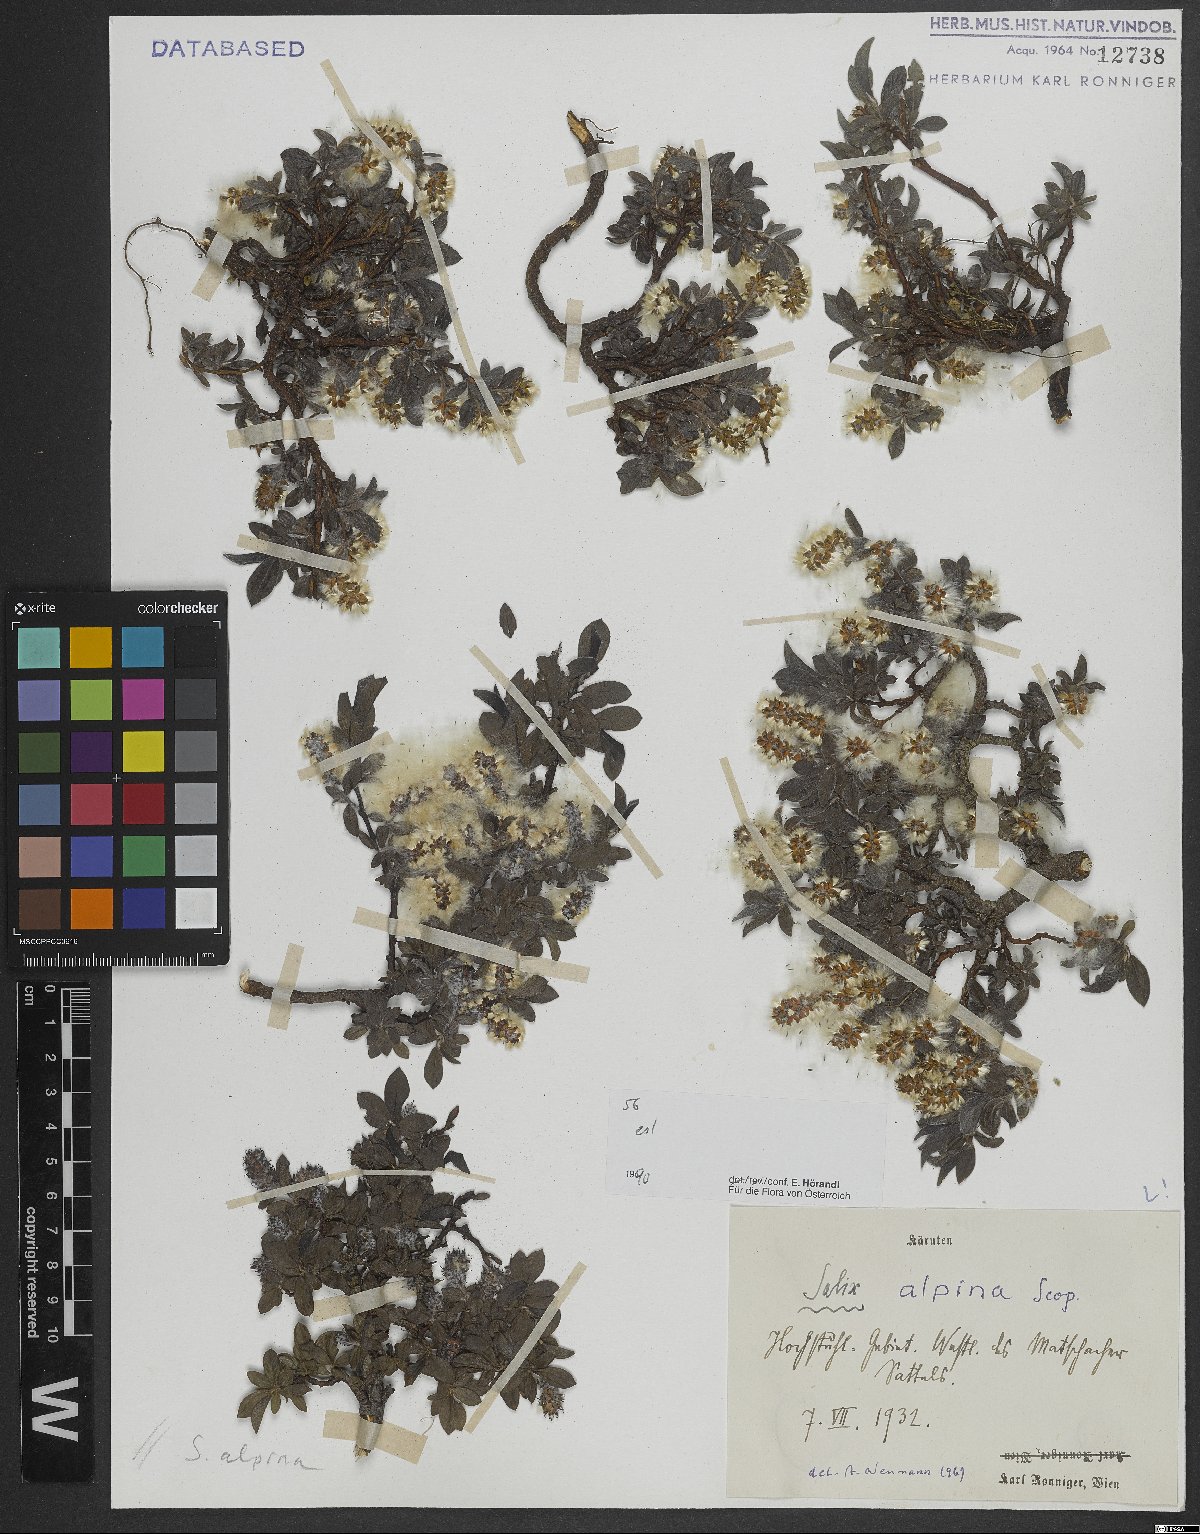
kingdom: Plantae
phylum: Tracheophyta
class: Magnoliopsida
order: Malpighiales
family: Salicaceae
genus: Salix
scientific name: Salix alpina
